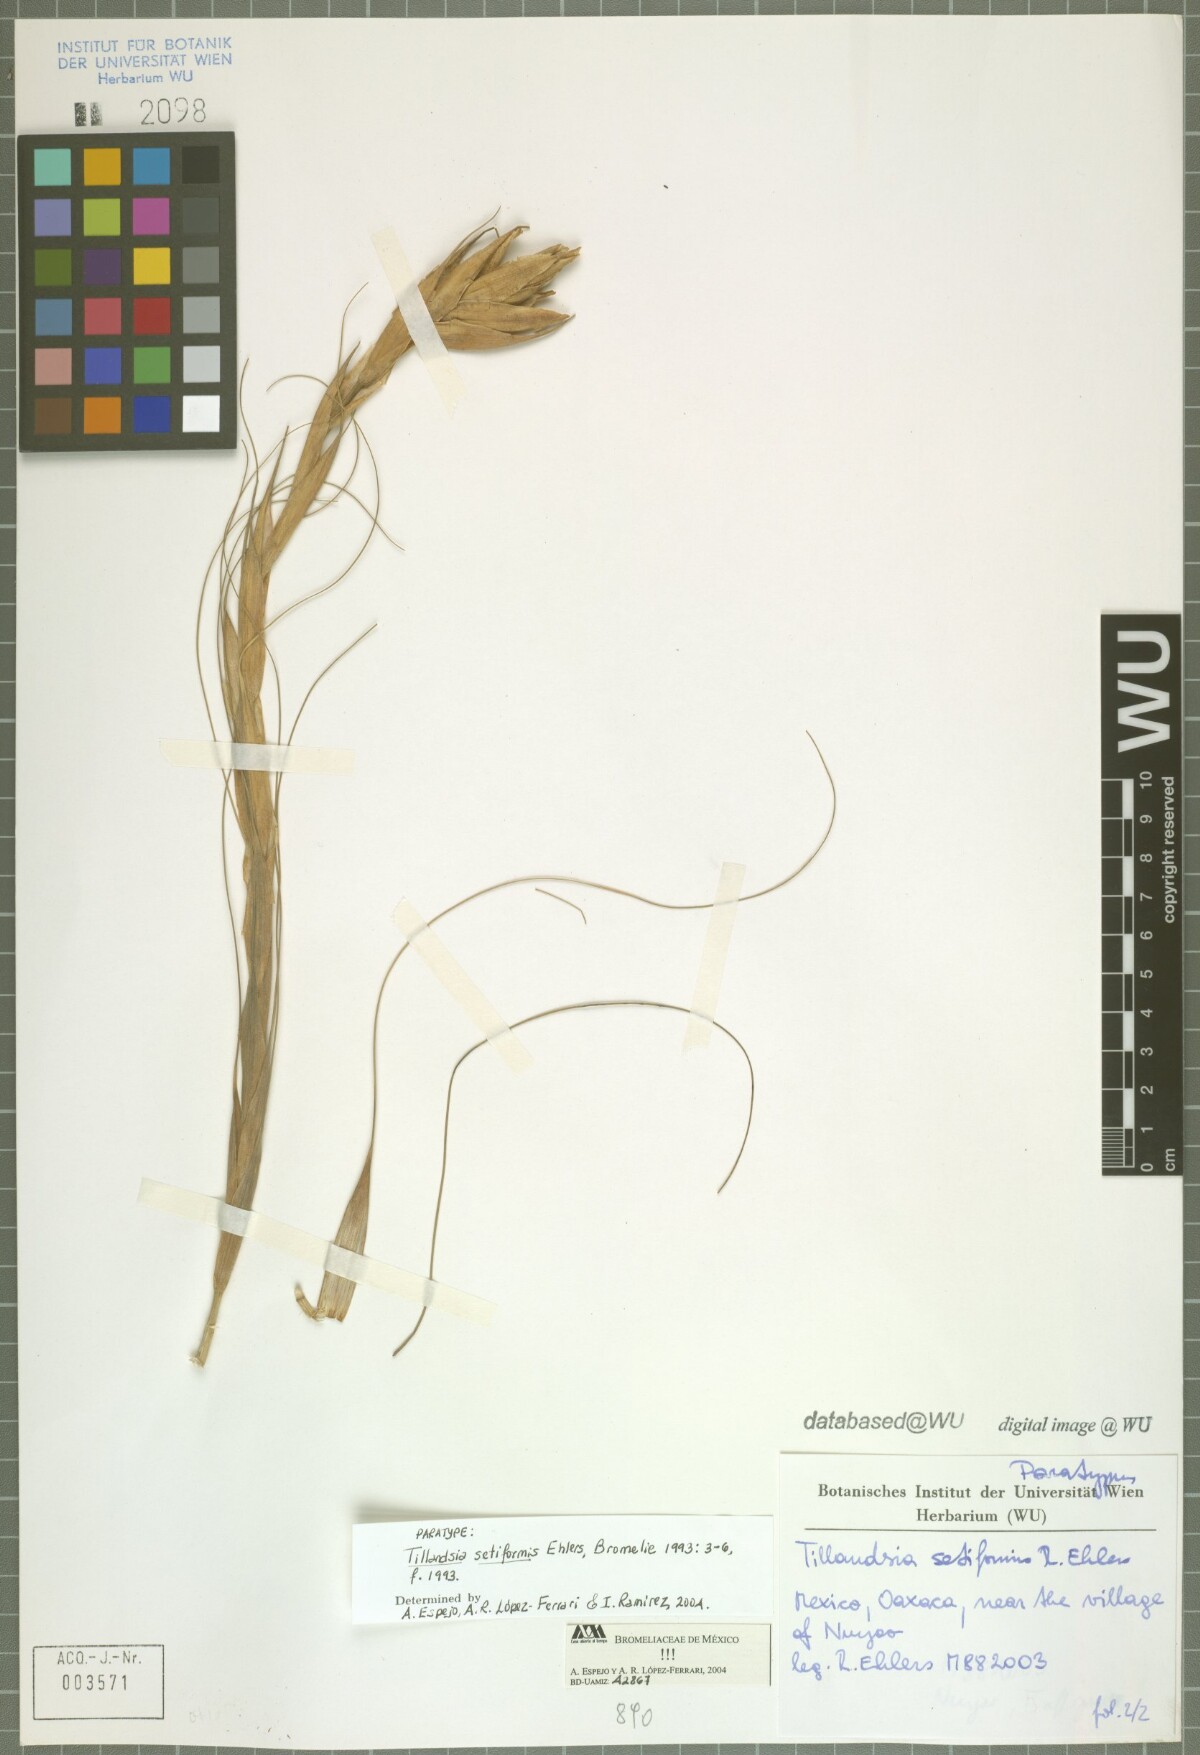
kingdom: Plantae
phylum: Tracheophyta
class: Liliopsida
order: Poales
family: Bromeliaceae
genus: Tillandsia
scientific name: Tillandsia setiformis
